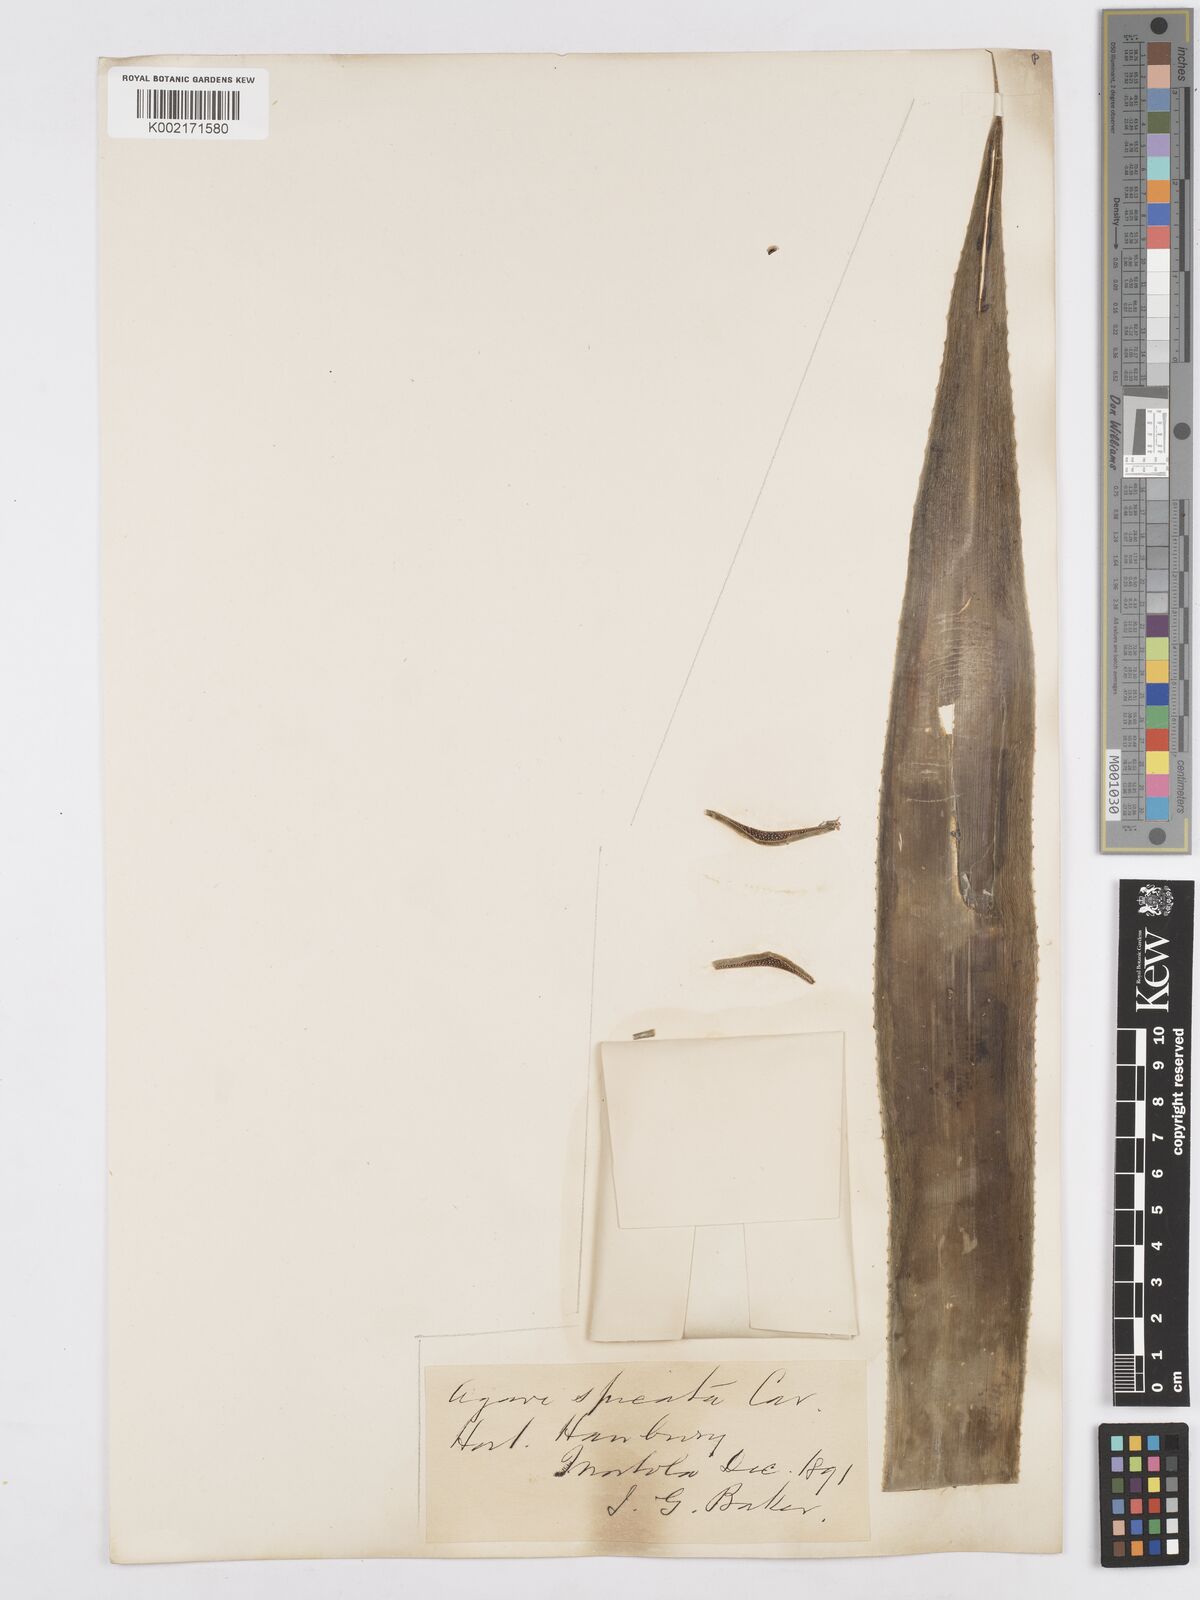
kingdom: Plantae
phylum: Tracheophyta
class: Liliopsida
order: Asparagales
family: Asparagaceae
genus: Agave
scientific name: Agave spicata
